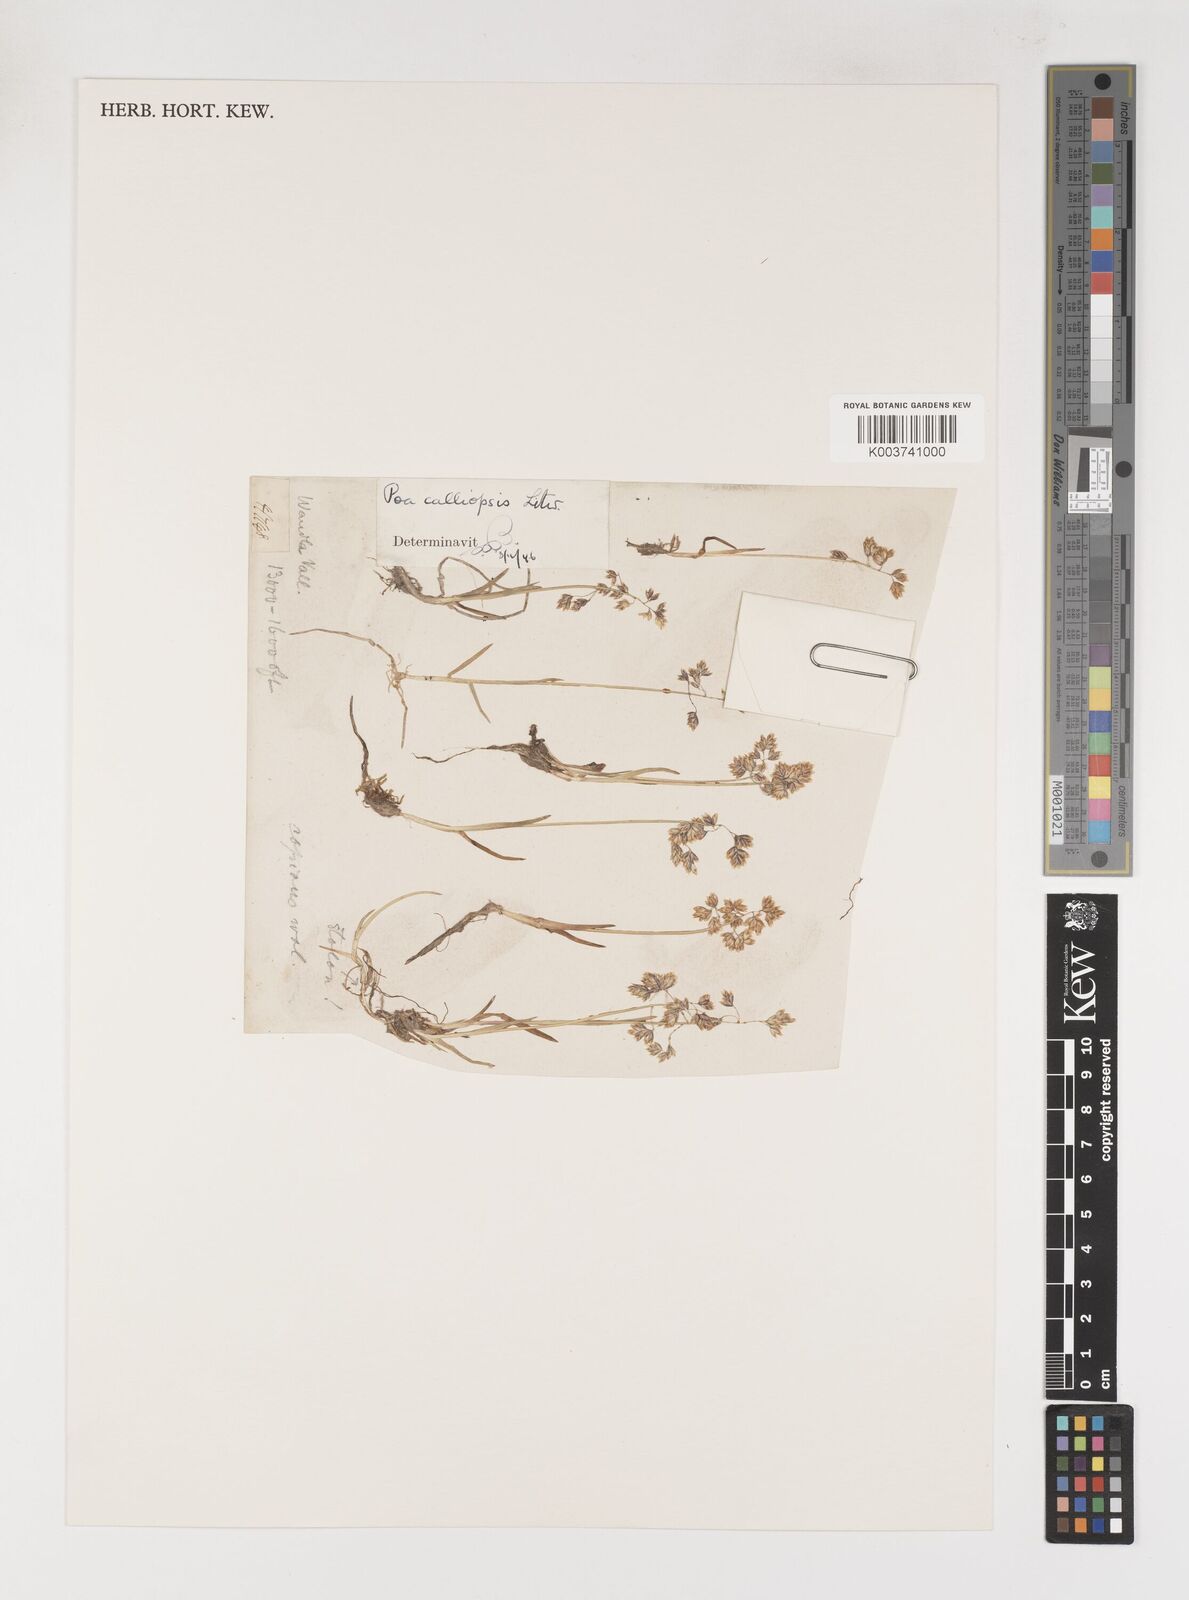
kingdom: Plantae
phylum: Tracheophyta
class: Liliopsida
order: Poales
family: Poaceae
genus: Poa
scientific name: Poa calliopsis
